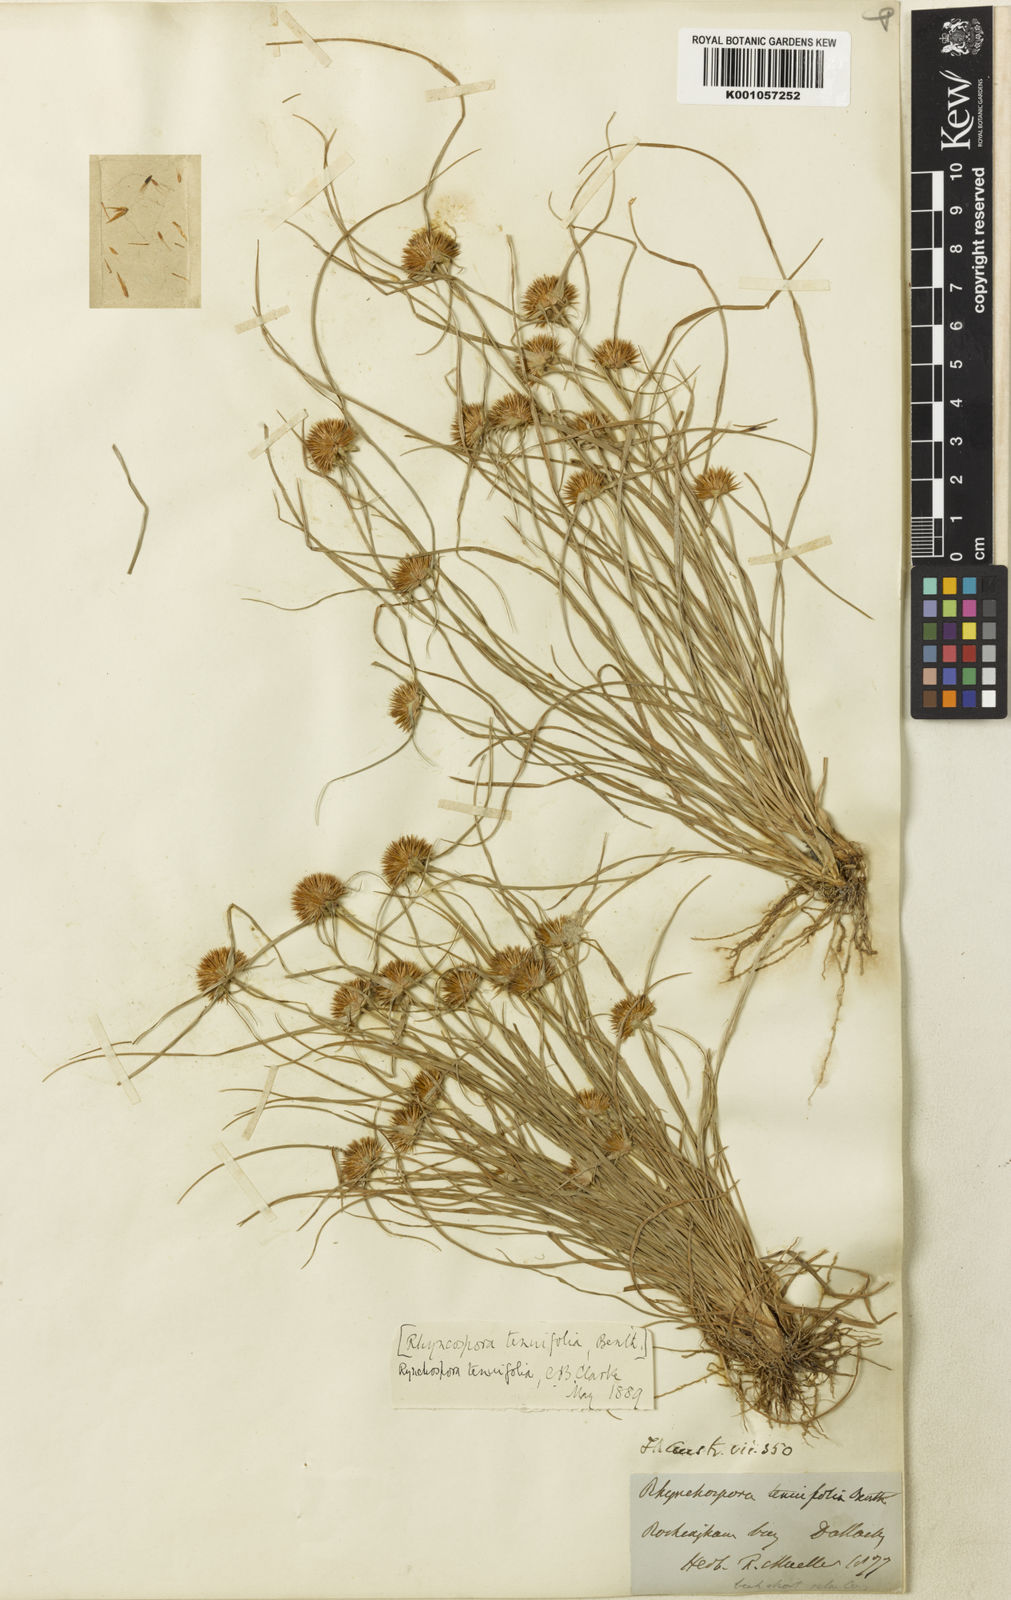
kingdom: Plantae
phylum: Tracheophyta
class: Liliopsida
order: Poales
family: Cyperaceae
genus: Rhynchospora
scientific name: Rhynchospora subtenuifolia
